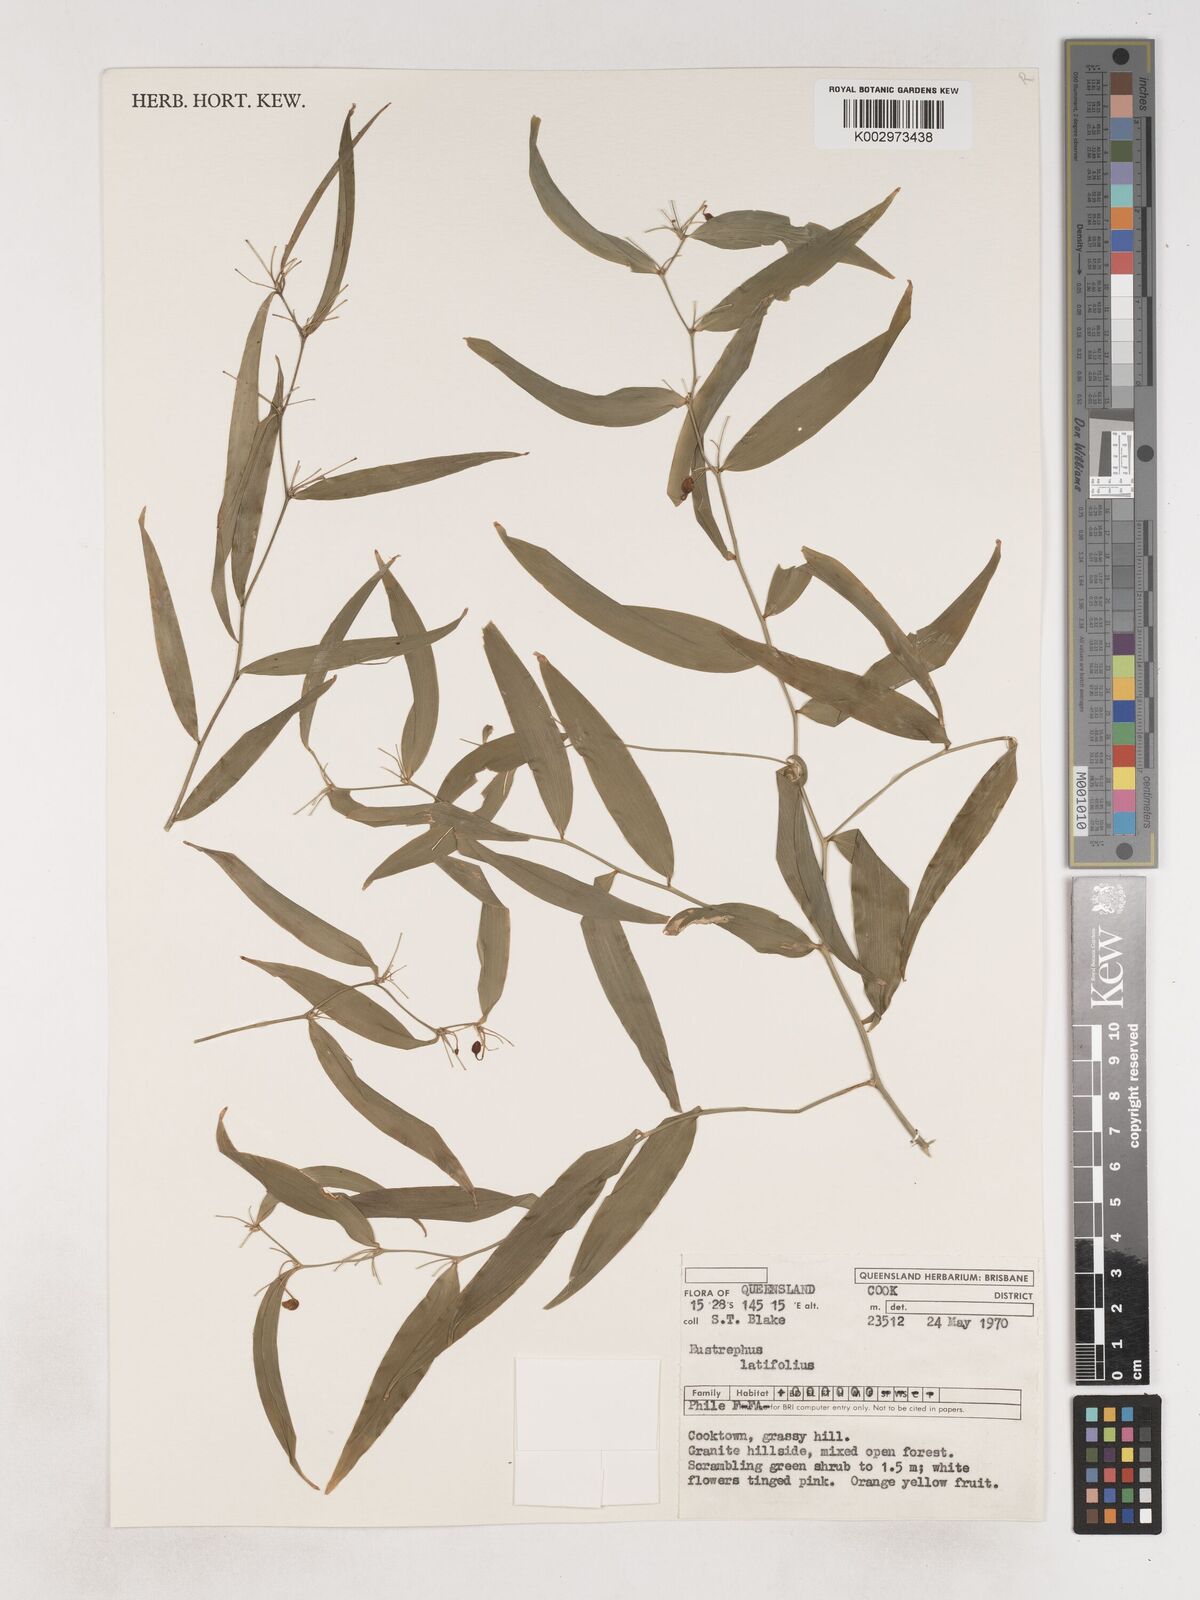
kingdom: Plantae
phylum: Tracheophyta
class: Liliopsida
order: Asparagales
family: Asparagaceae
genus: Eustrephus
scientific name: Eustrephus latifolius
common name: Orangevine
